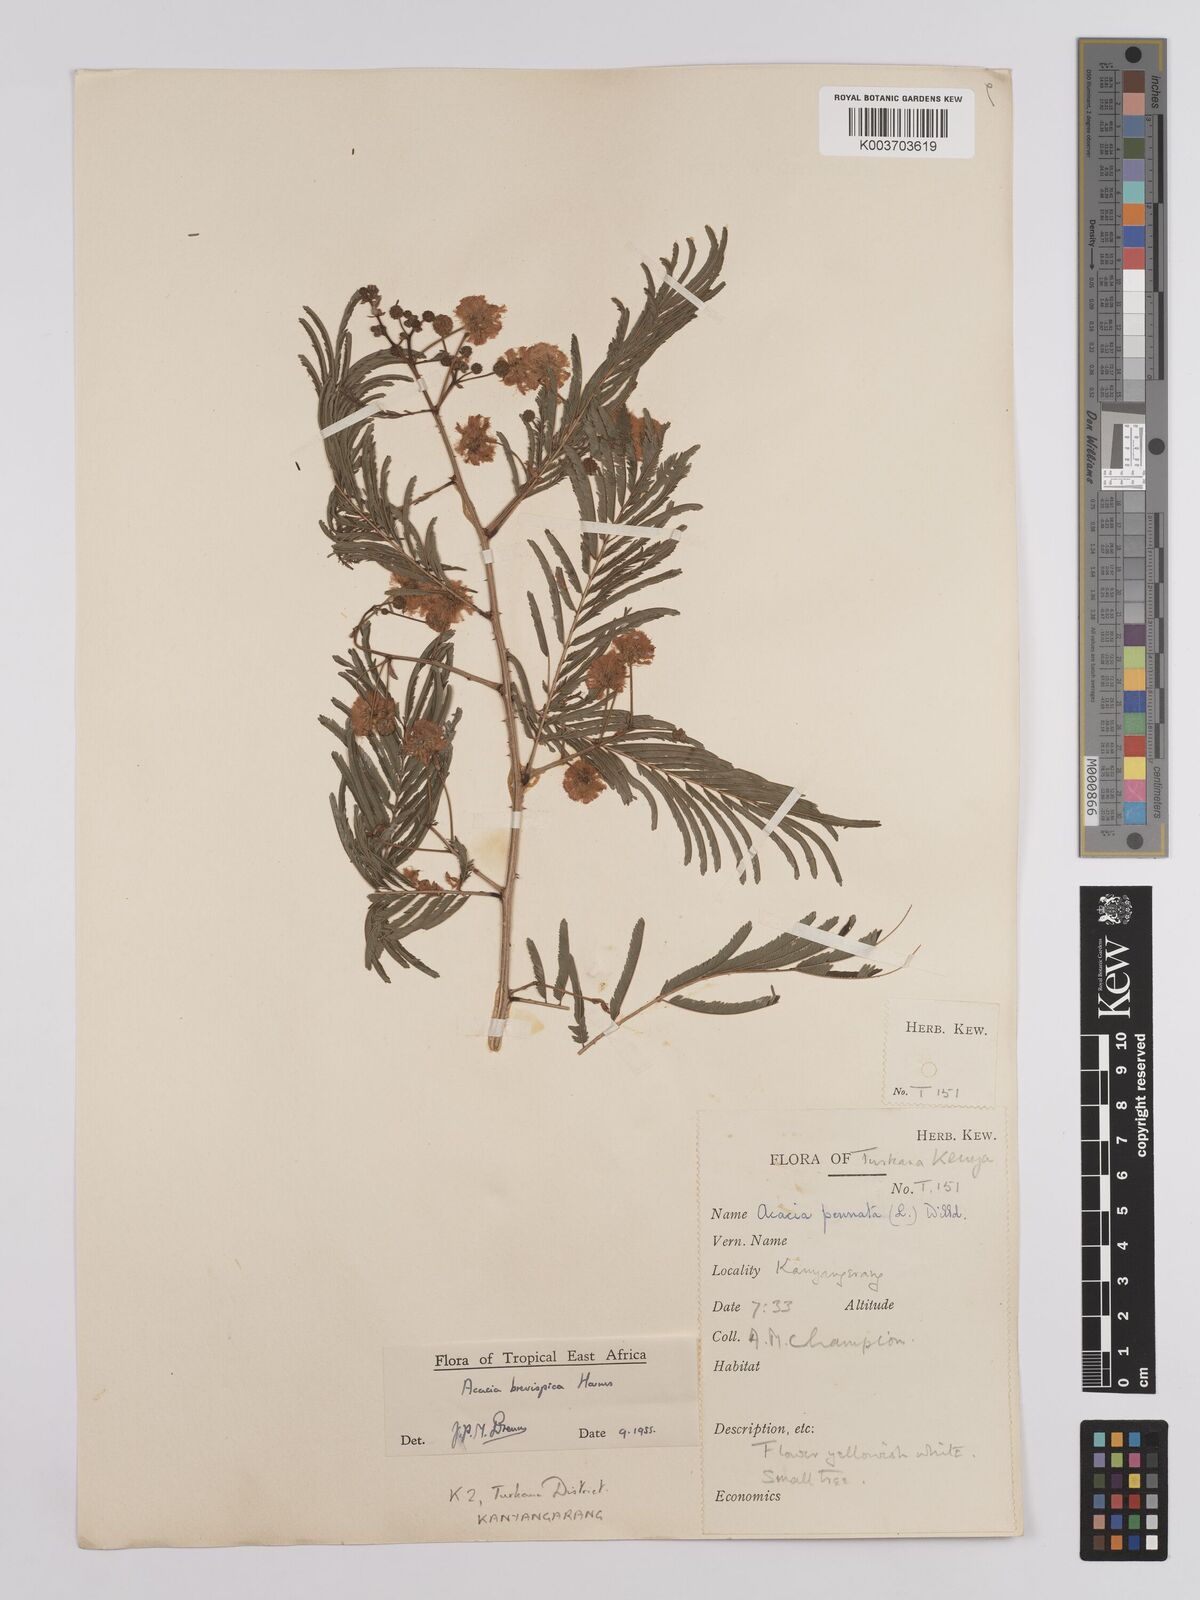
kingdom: Plantae
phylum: Tracheophyta
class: Magnoliopsida
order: Fabales
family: Fabaceae
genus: Senegalia
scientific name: Senegalia brevispica
